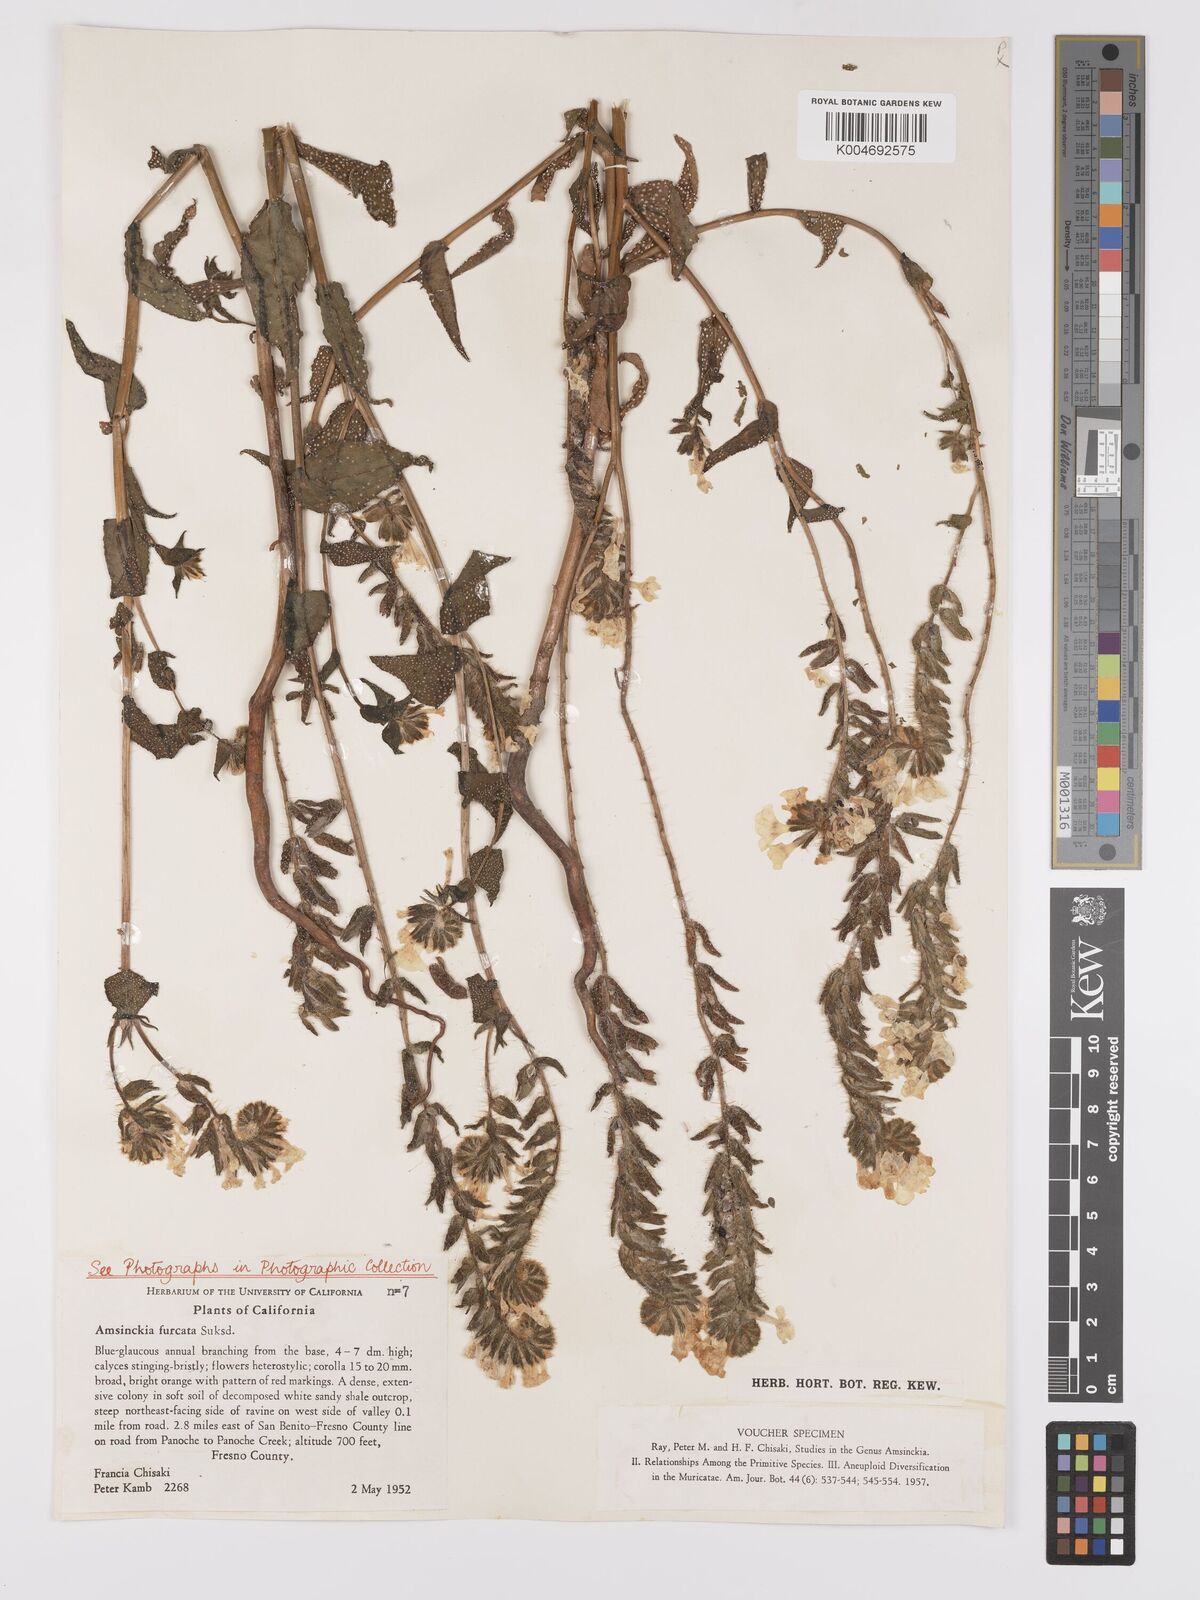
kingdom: Plantae
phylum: Tracheophyta
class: Magnoliopsida
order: Boraginales
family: Boraginaceae
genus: Amsinckia
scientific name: Amsinckia vernicosa
